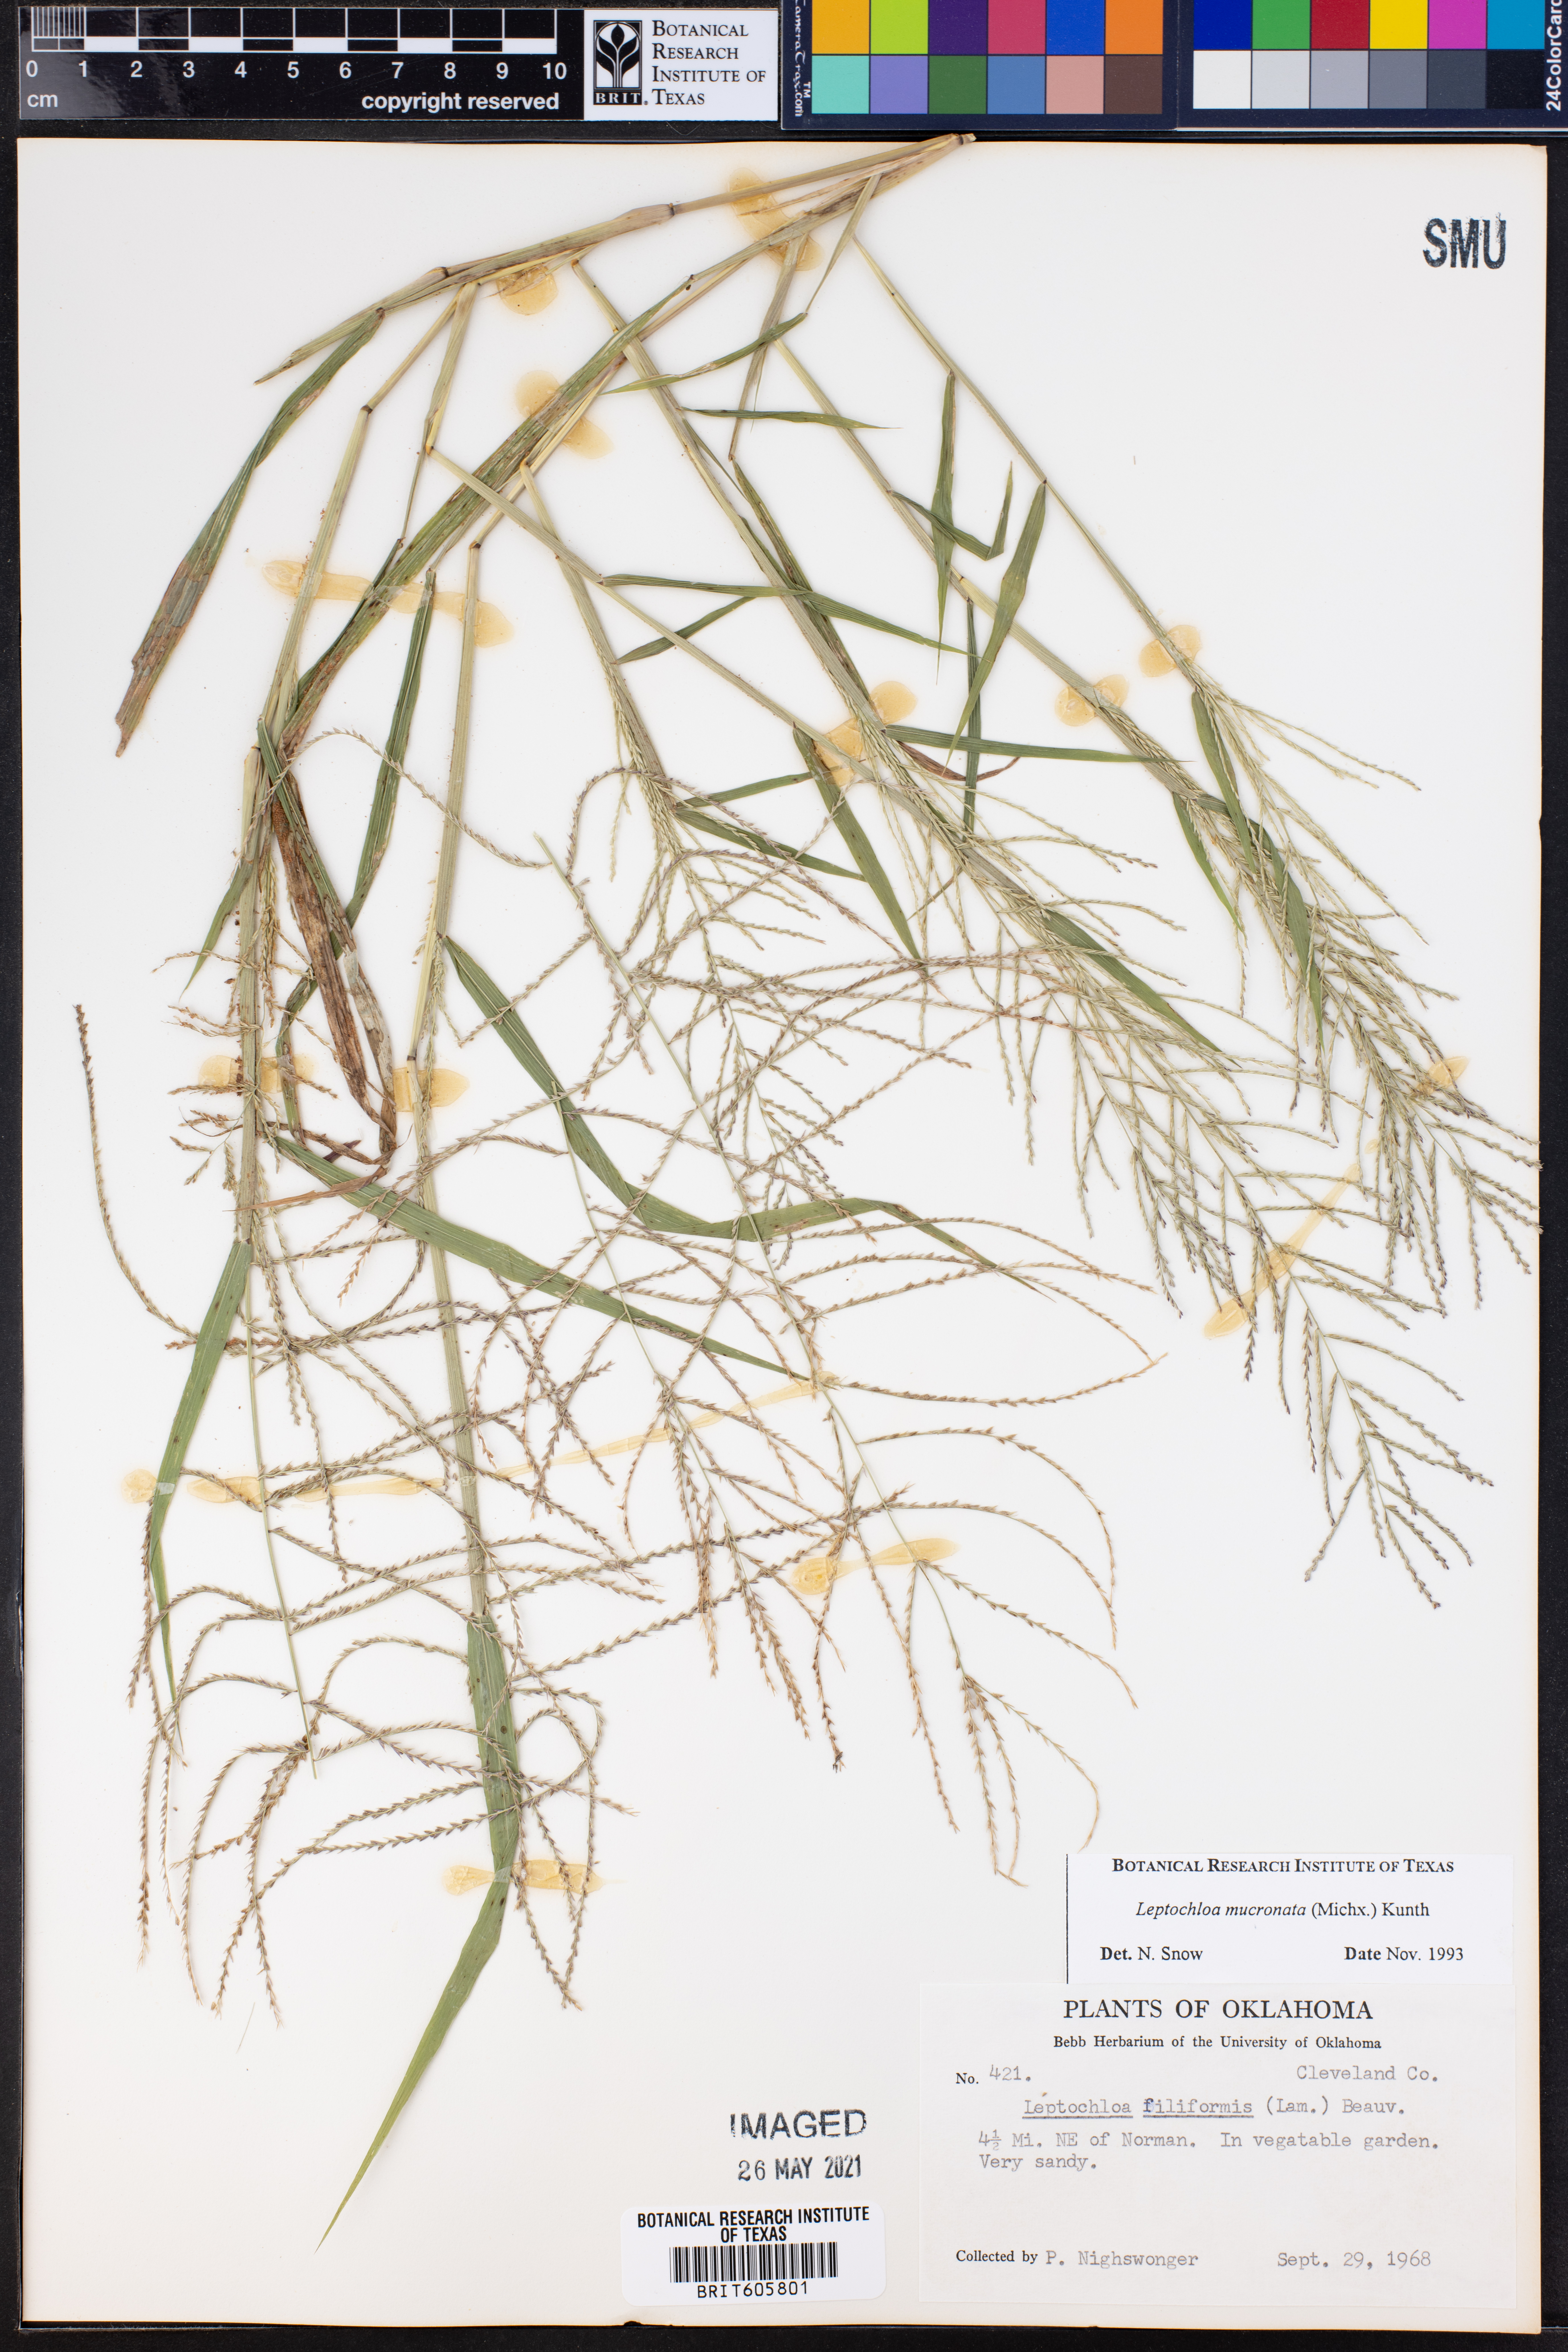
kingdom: Plantae
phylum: Tracheophyta
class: Liliopsida
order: Poales
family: Poaceae
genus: Leptochloa
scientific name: Leptochloa mucronata
